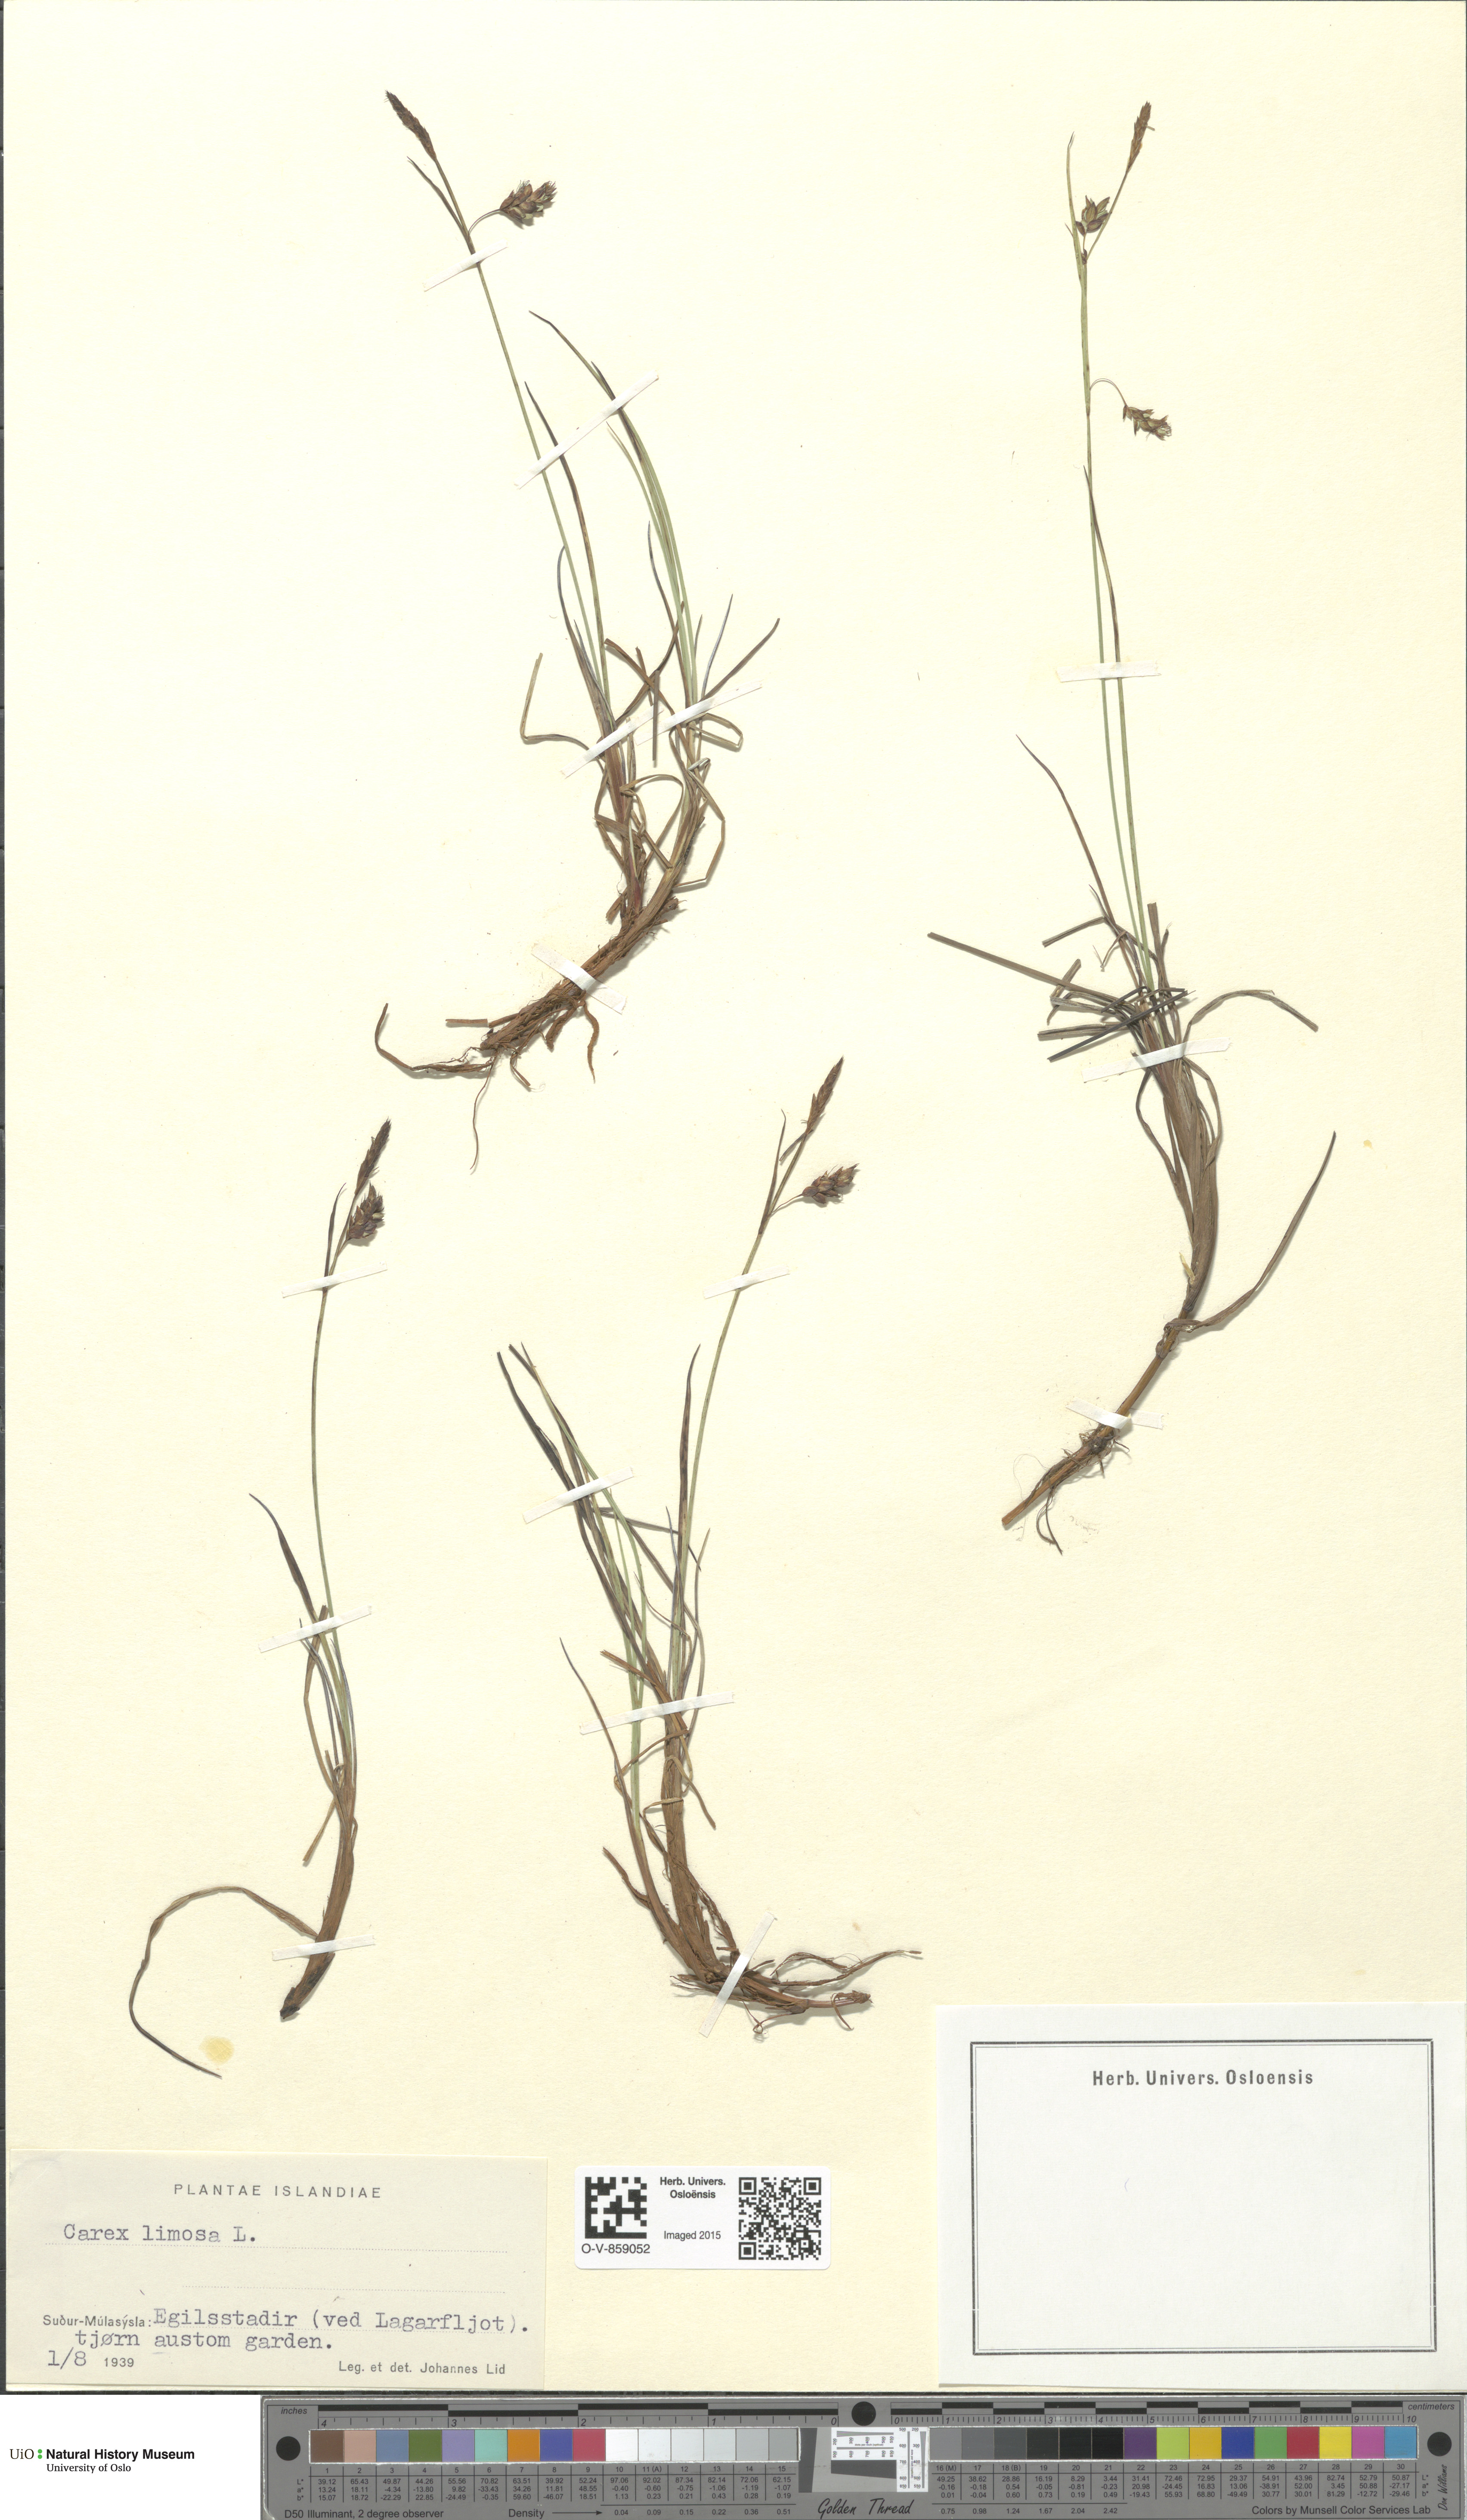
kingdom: Plantae
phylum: Tracheophyta
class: Liliopsida
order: Poales
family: Cyperaceae
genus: Carex
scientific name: Carex limosa
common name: Bog sedge
